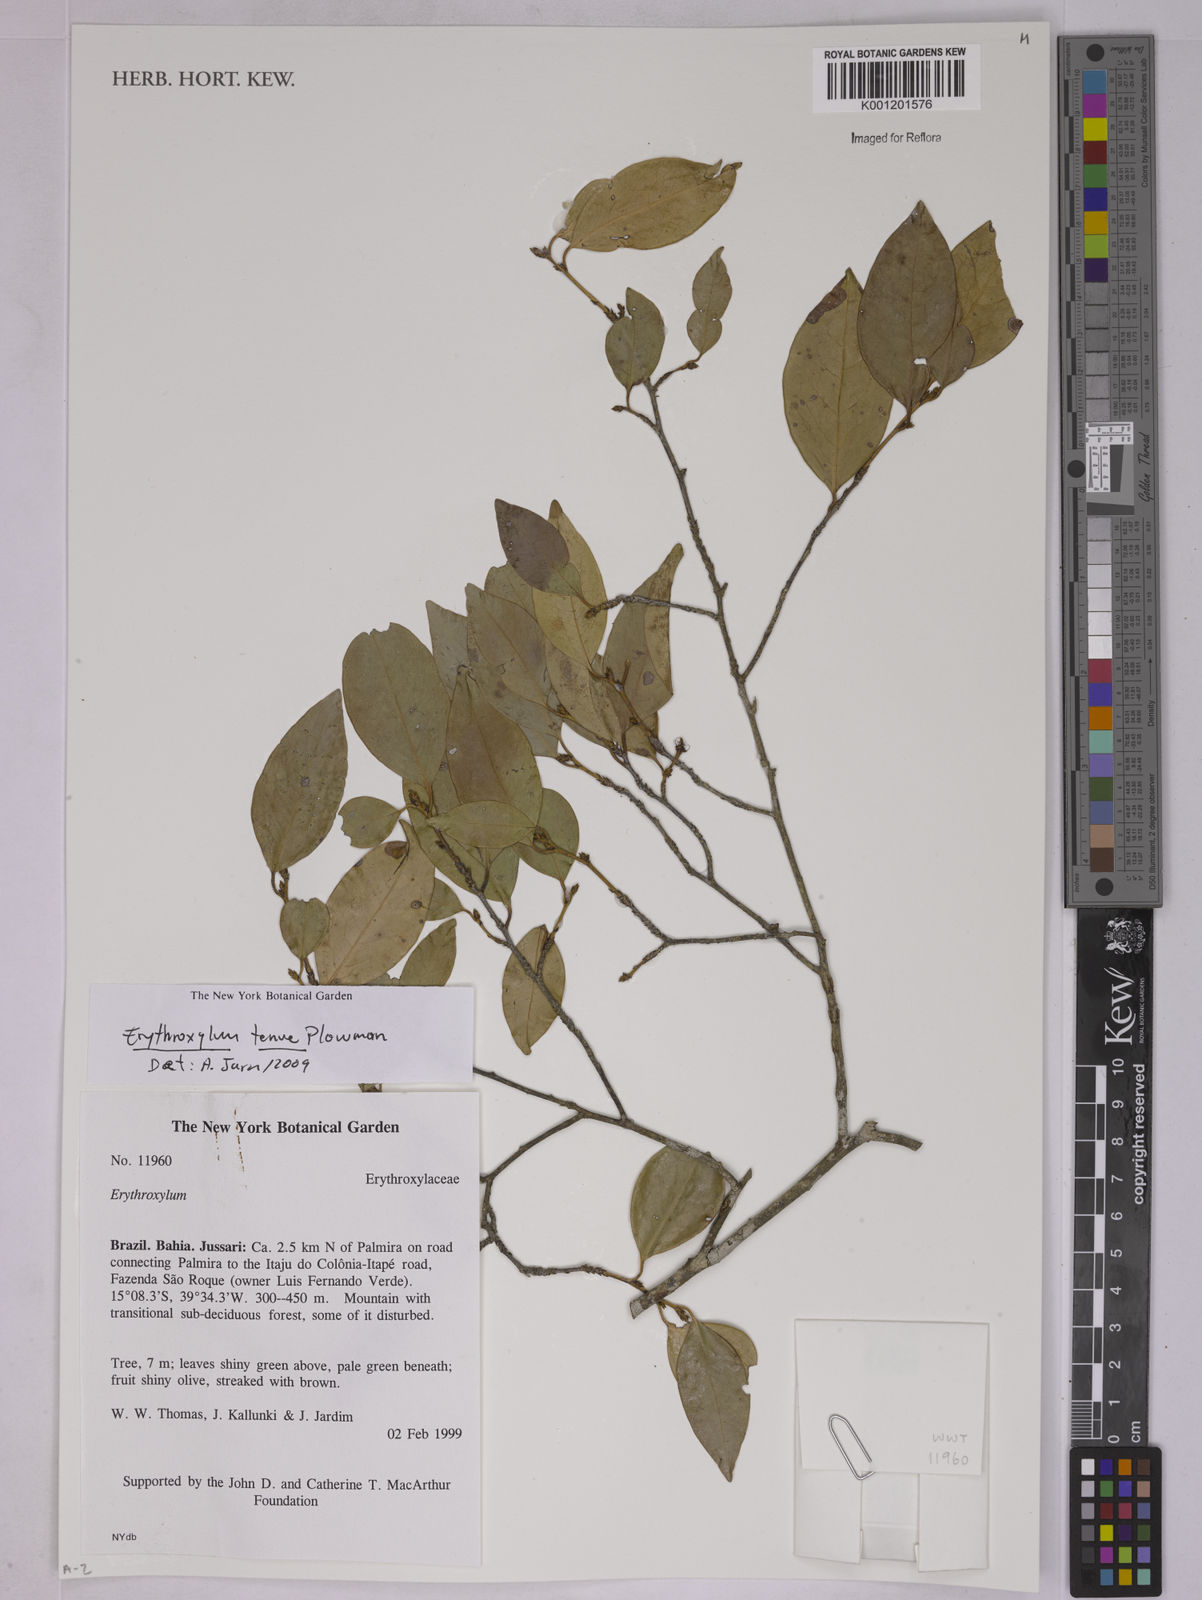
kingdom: Plantae
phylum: Tracheophyta
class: Magnoliopsida
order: Malpighiales
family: Erythroxylaceae
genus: Erythroxylum
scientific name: Erythroxylum tenue
